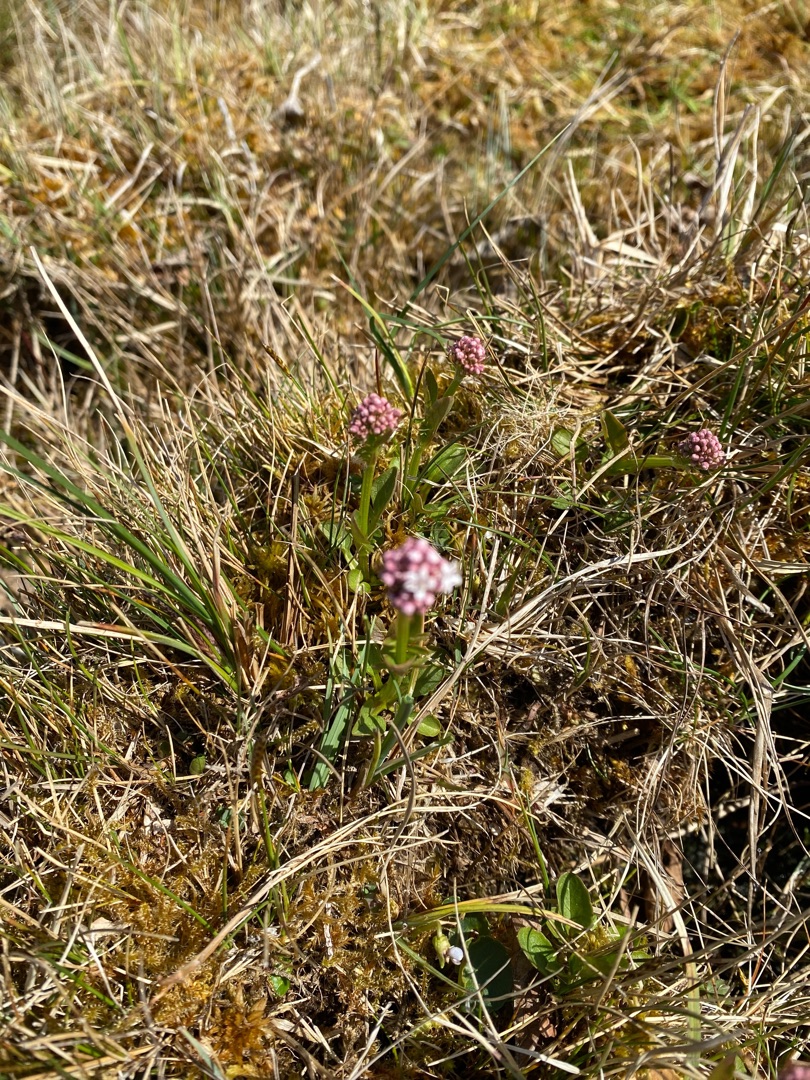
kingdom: Plantae
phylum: Tracheophyta
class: Magnoliopsida
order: Dipsacales
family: Caprifoliaceae
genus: Valeriana
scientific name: Valeriana dioica
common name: Tvebo baldrian
